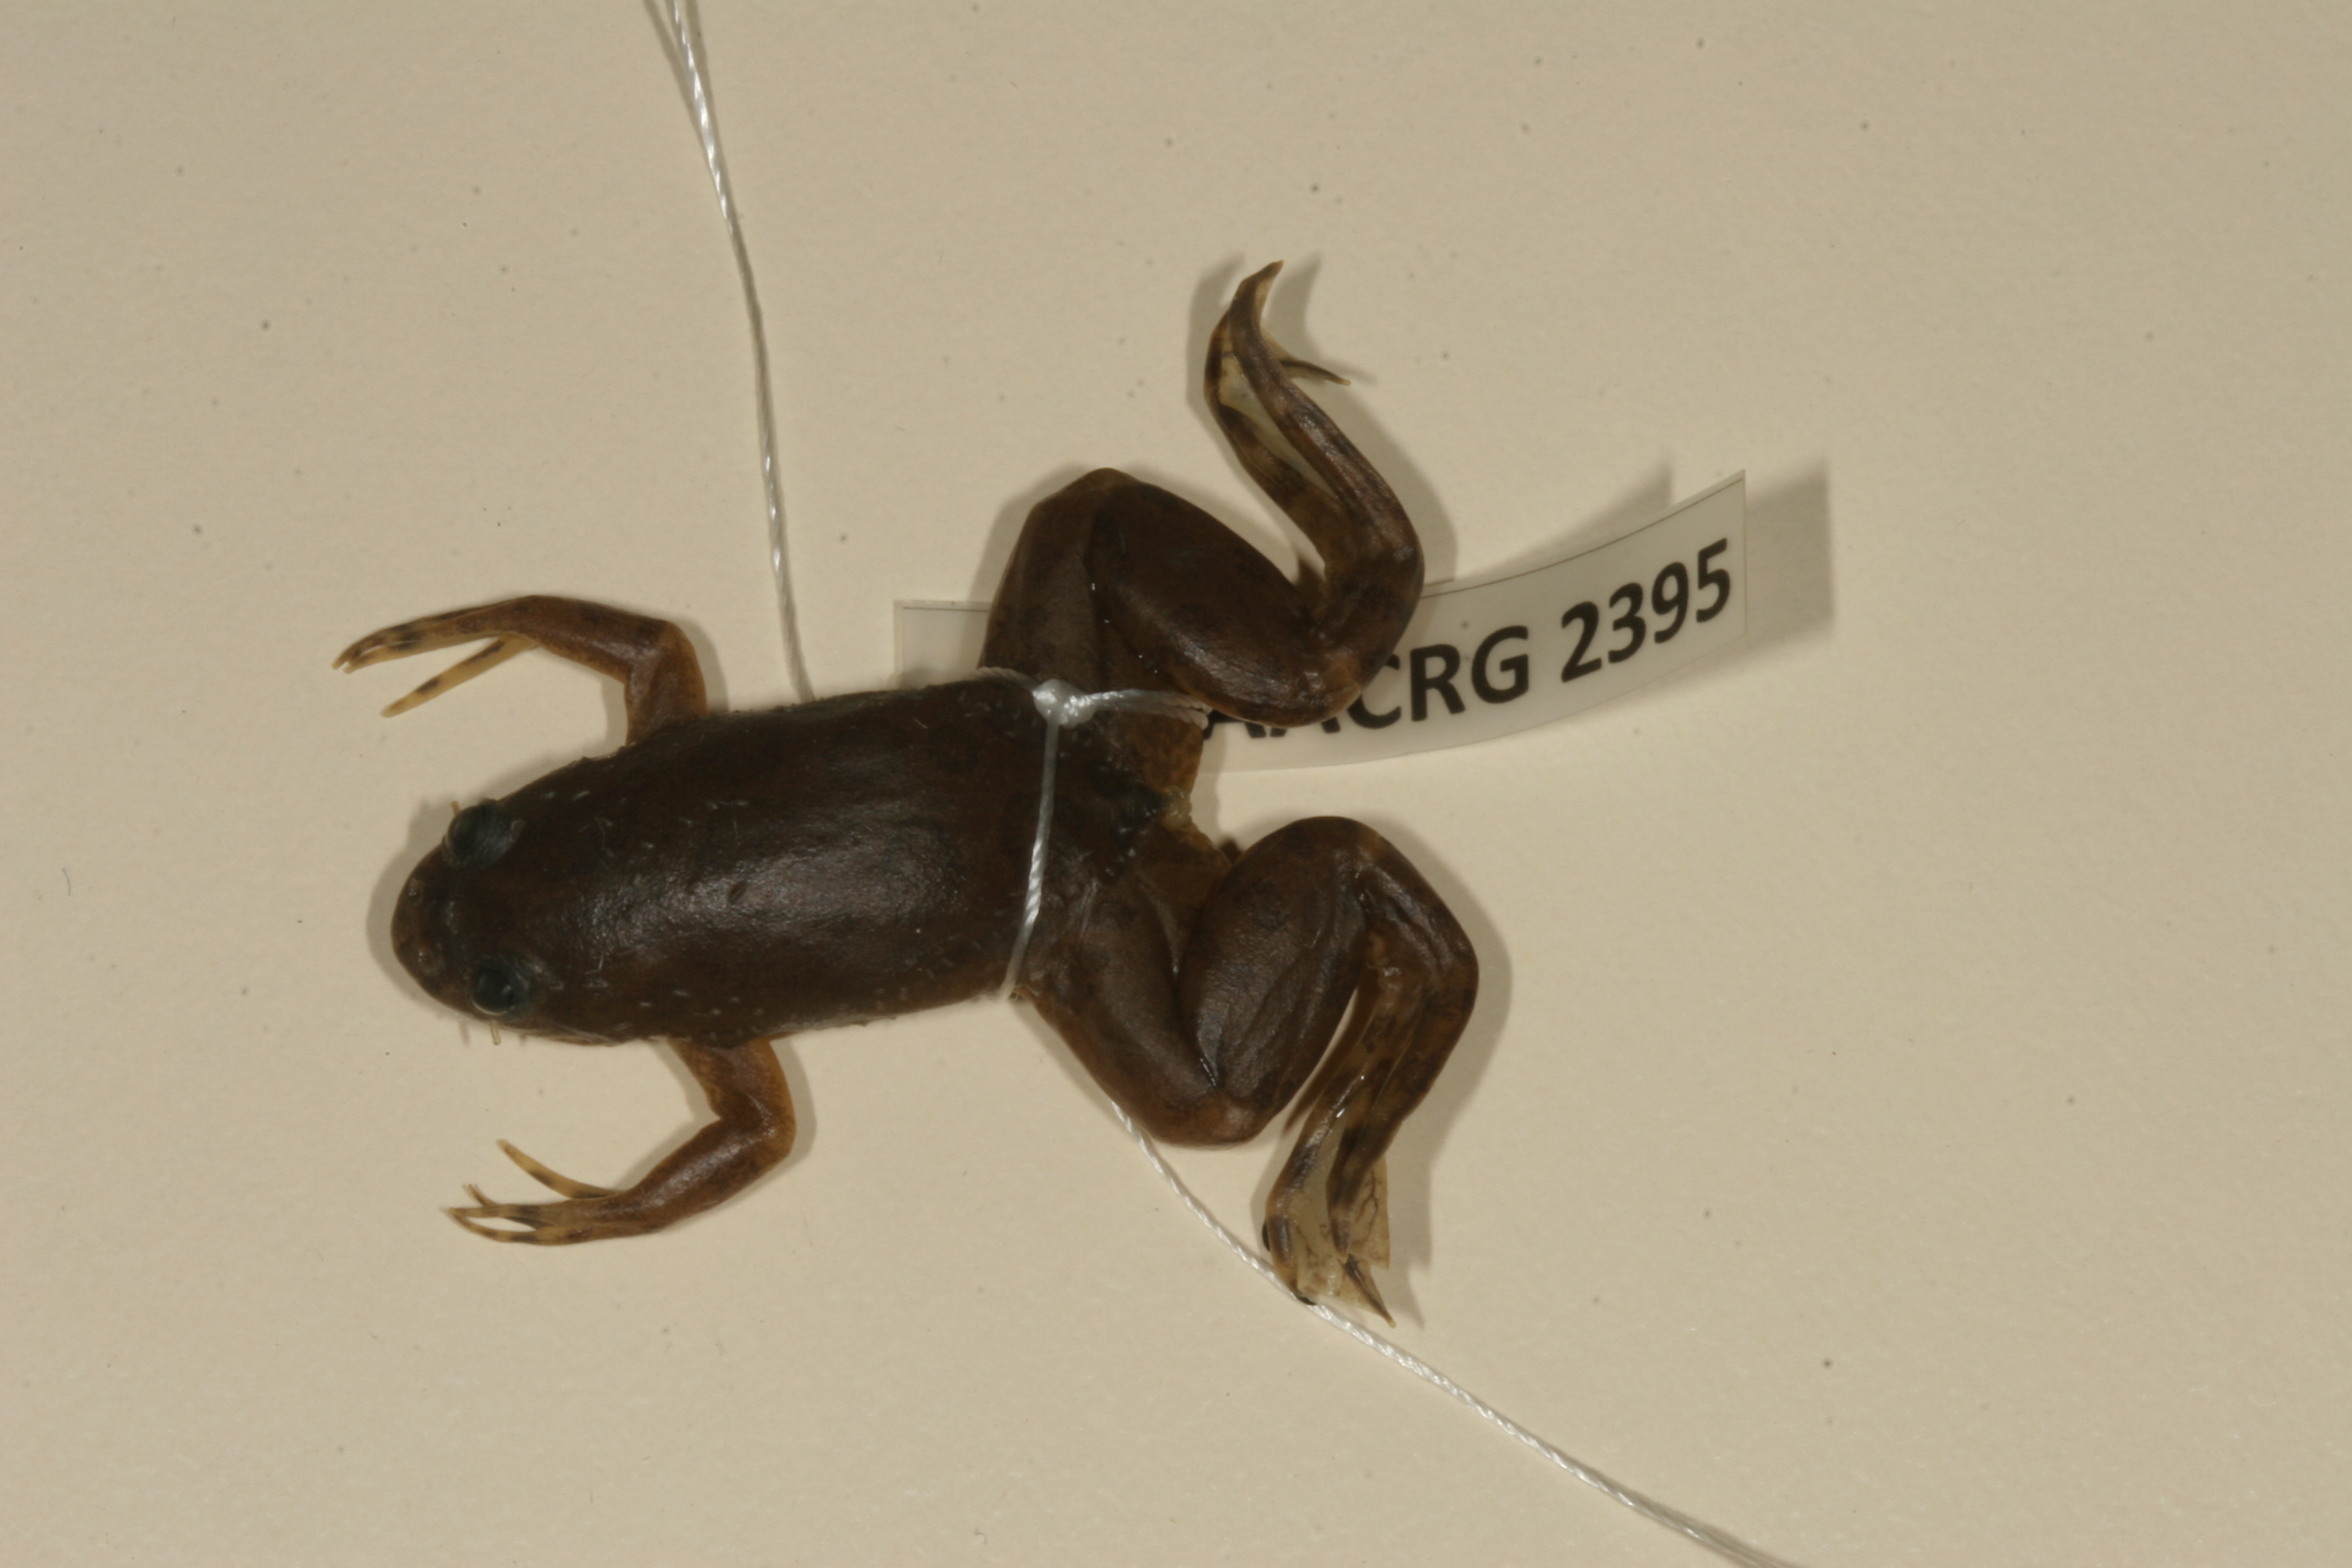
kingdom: Animalia
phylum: Chordata
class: Amphibia
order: Anura
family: Pipidae
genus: Xenopus
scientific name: Xenopus muelleri
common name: Muller's clawed frog
